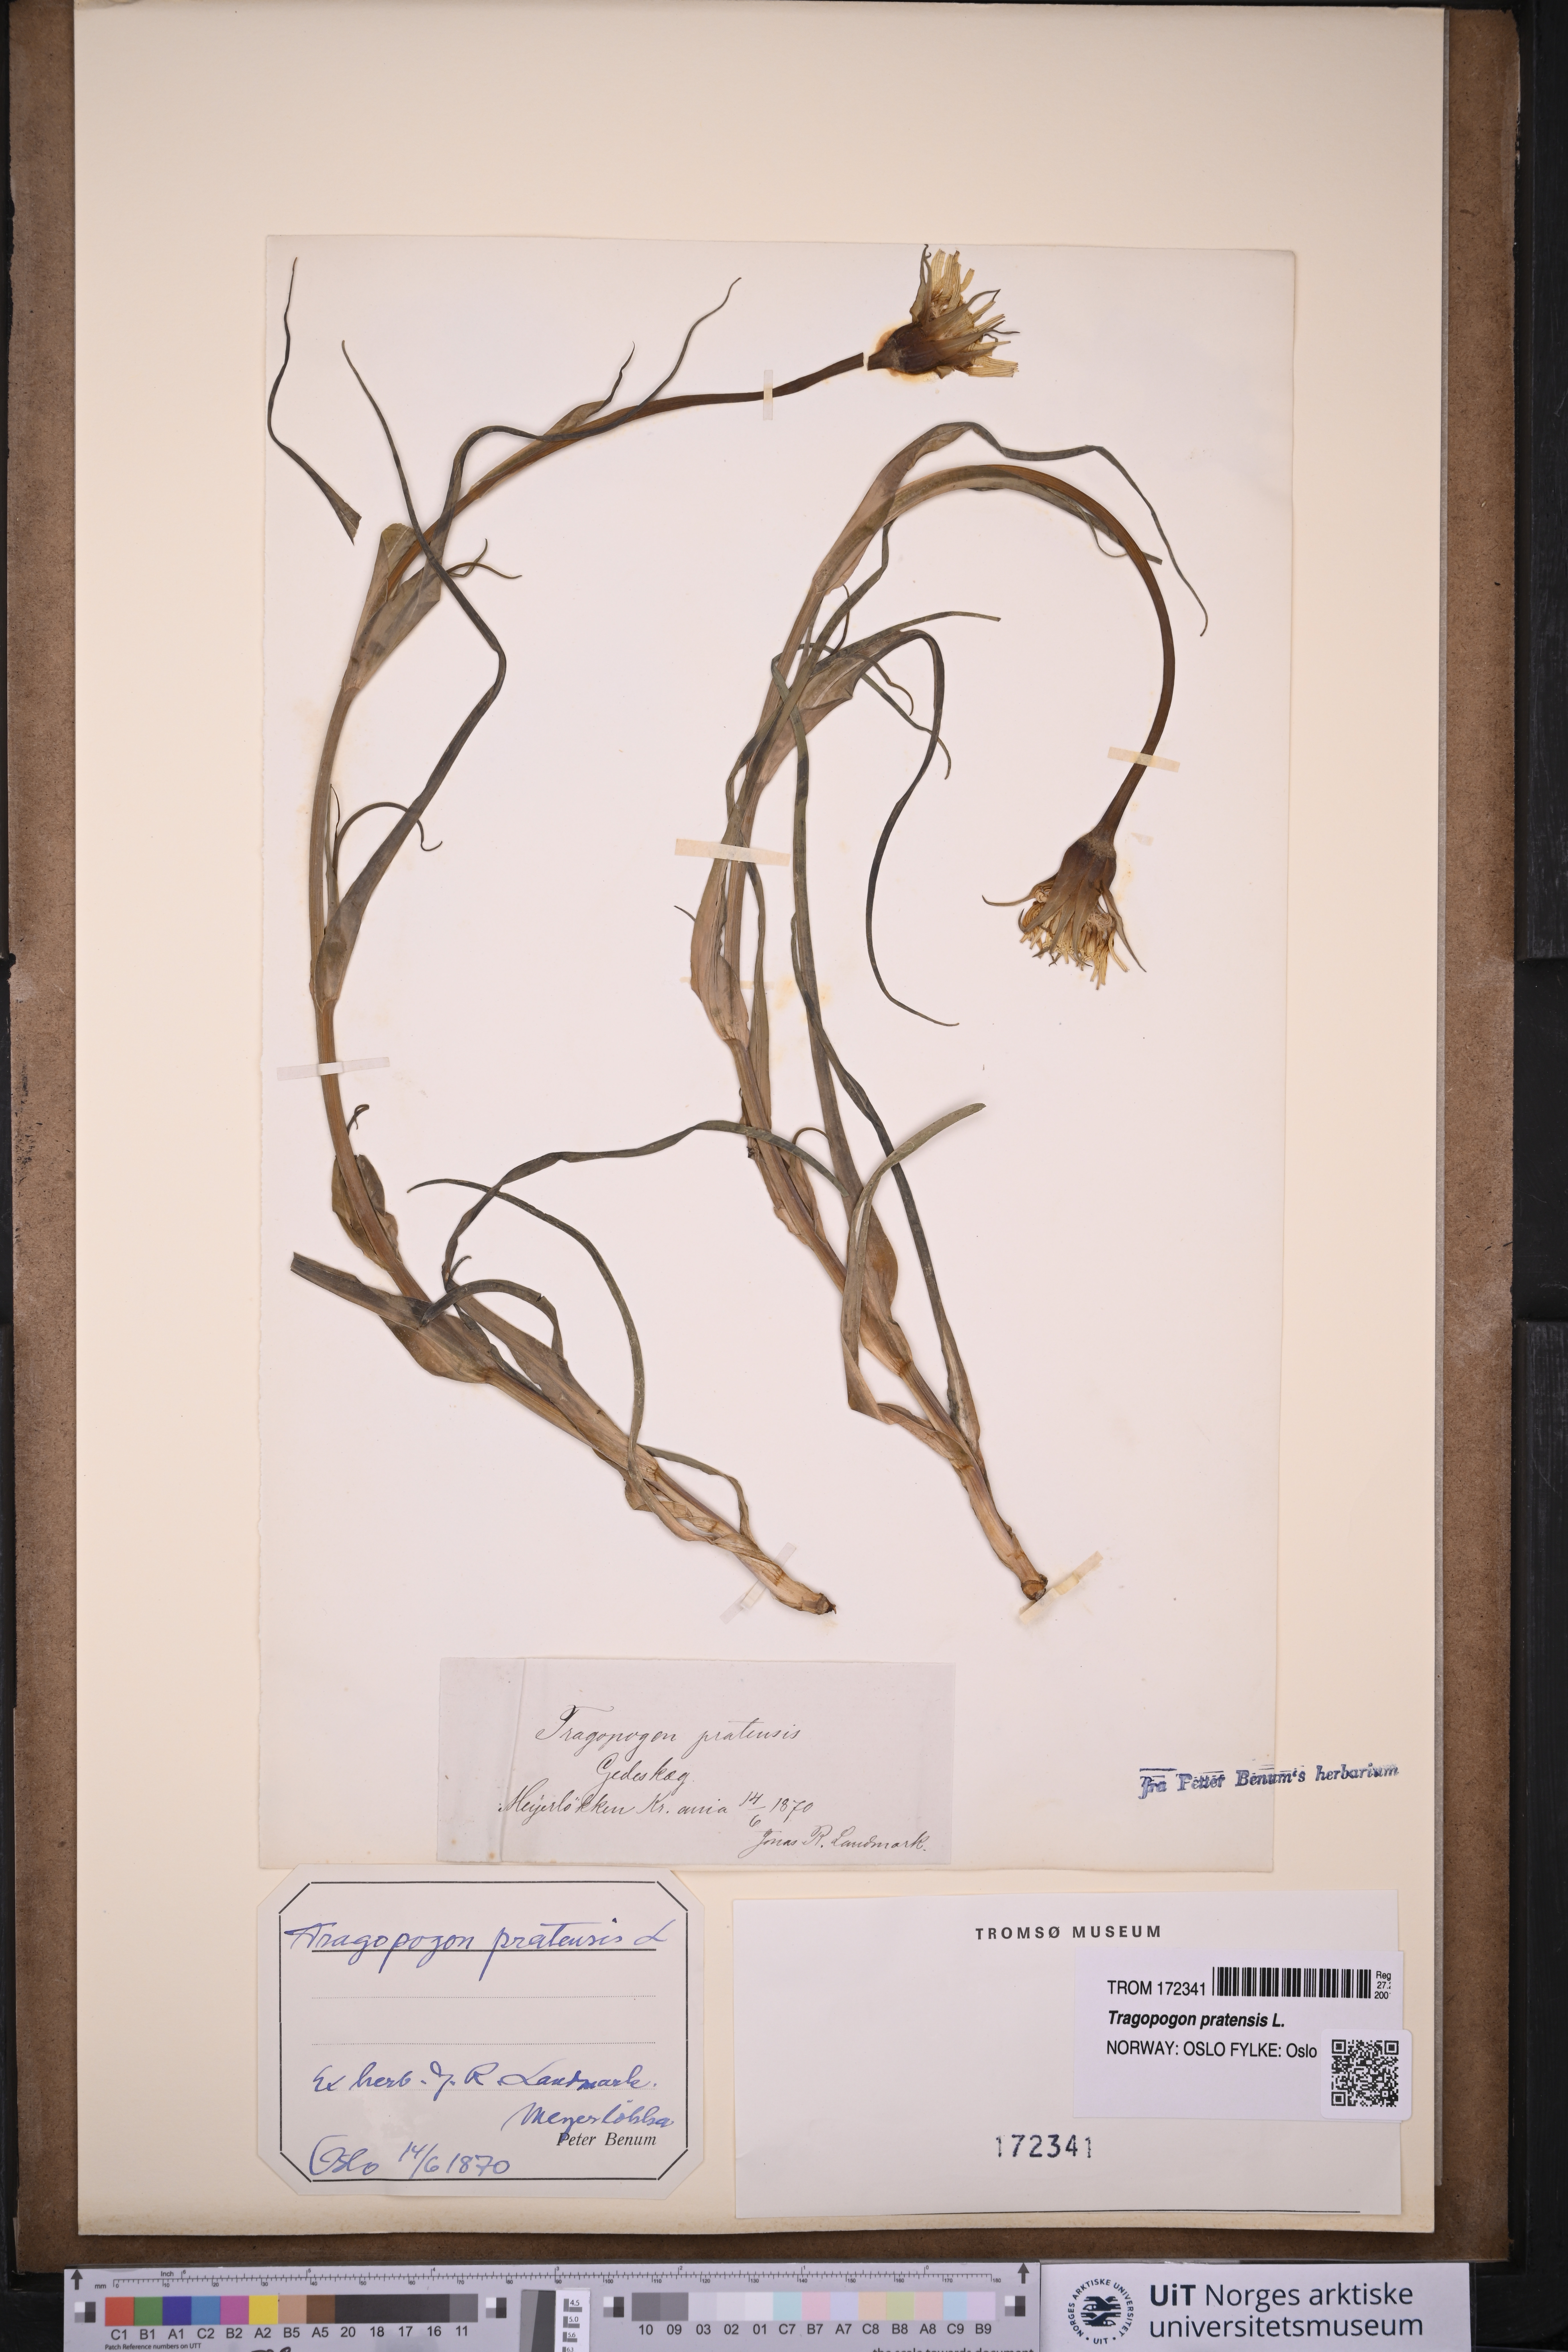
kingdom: Plantae
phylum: Tracheophyta
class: Magnoliopsida
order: Asterales
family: Asteraceae
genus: Tragopogon
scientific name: Tragopogon pratensis
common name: Goat's-beard
